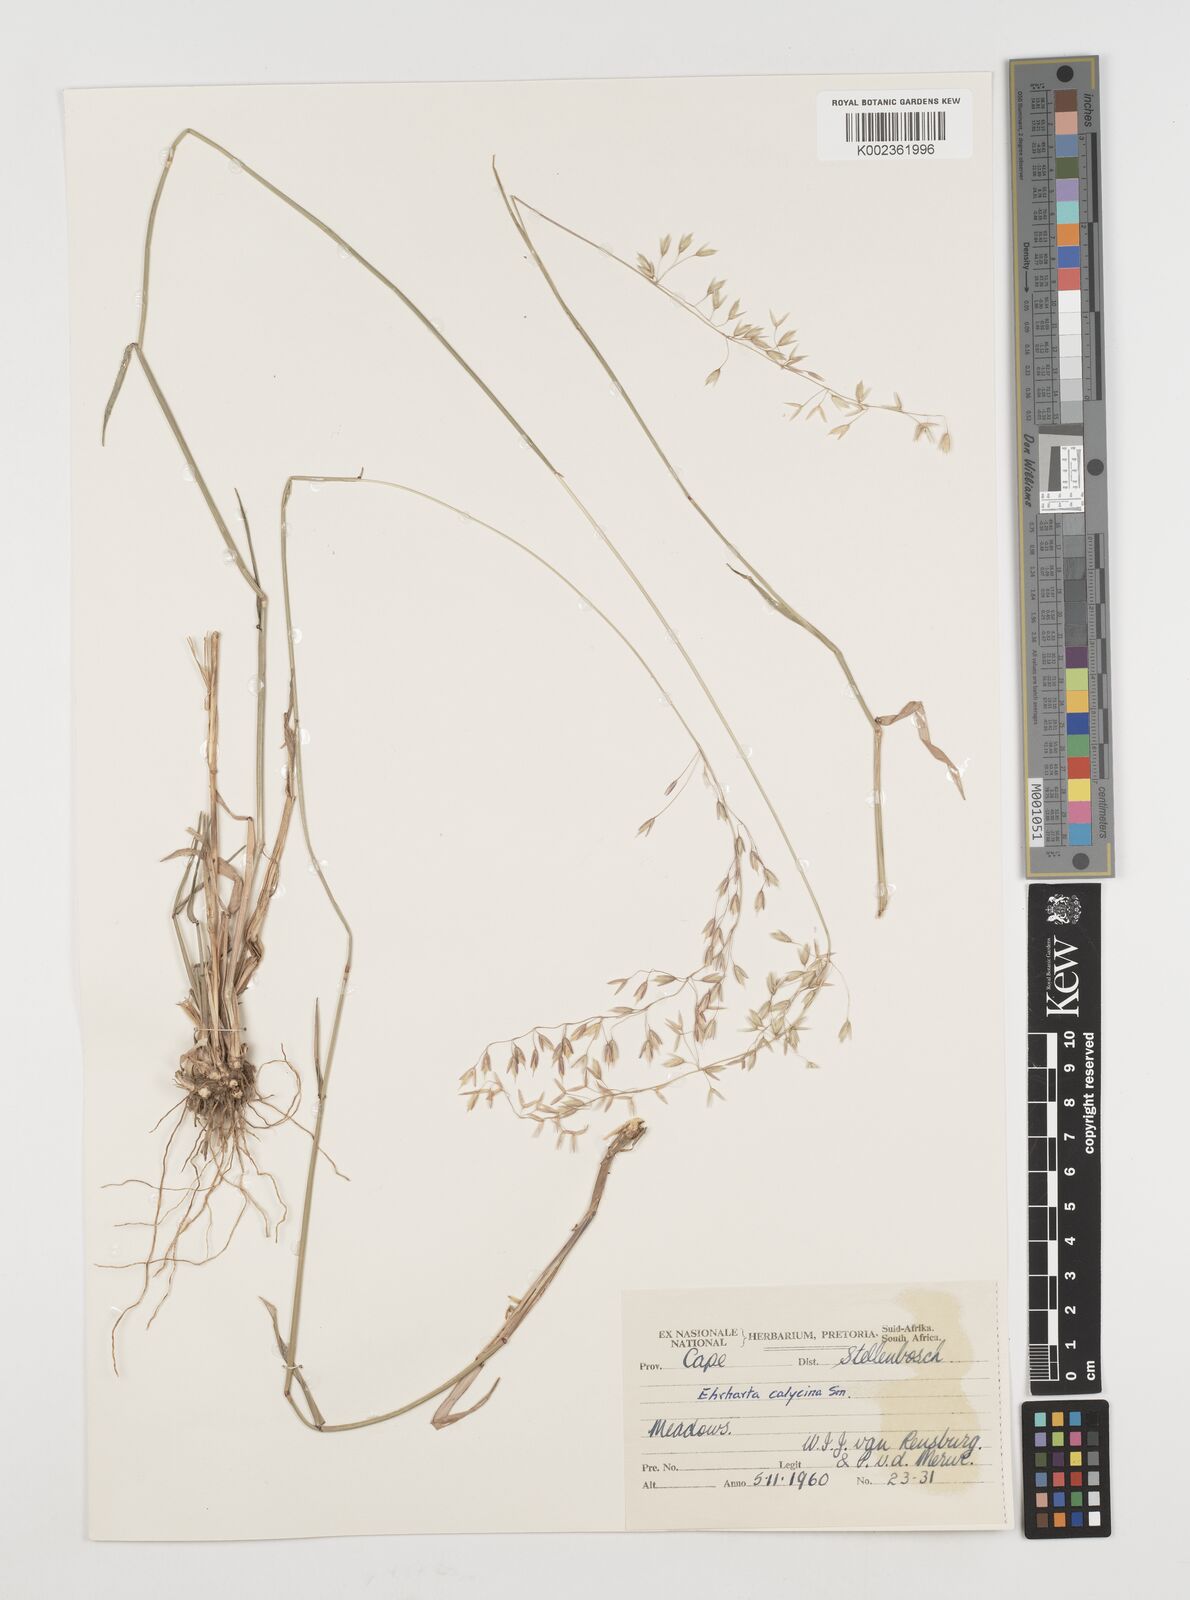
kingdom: Plantae
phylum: Tracheophyta
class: Liliopsida
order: Poales
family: Poaceae
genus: Ehrharta
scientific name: Ehrharta calycina
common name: Perennial veldtgrass
